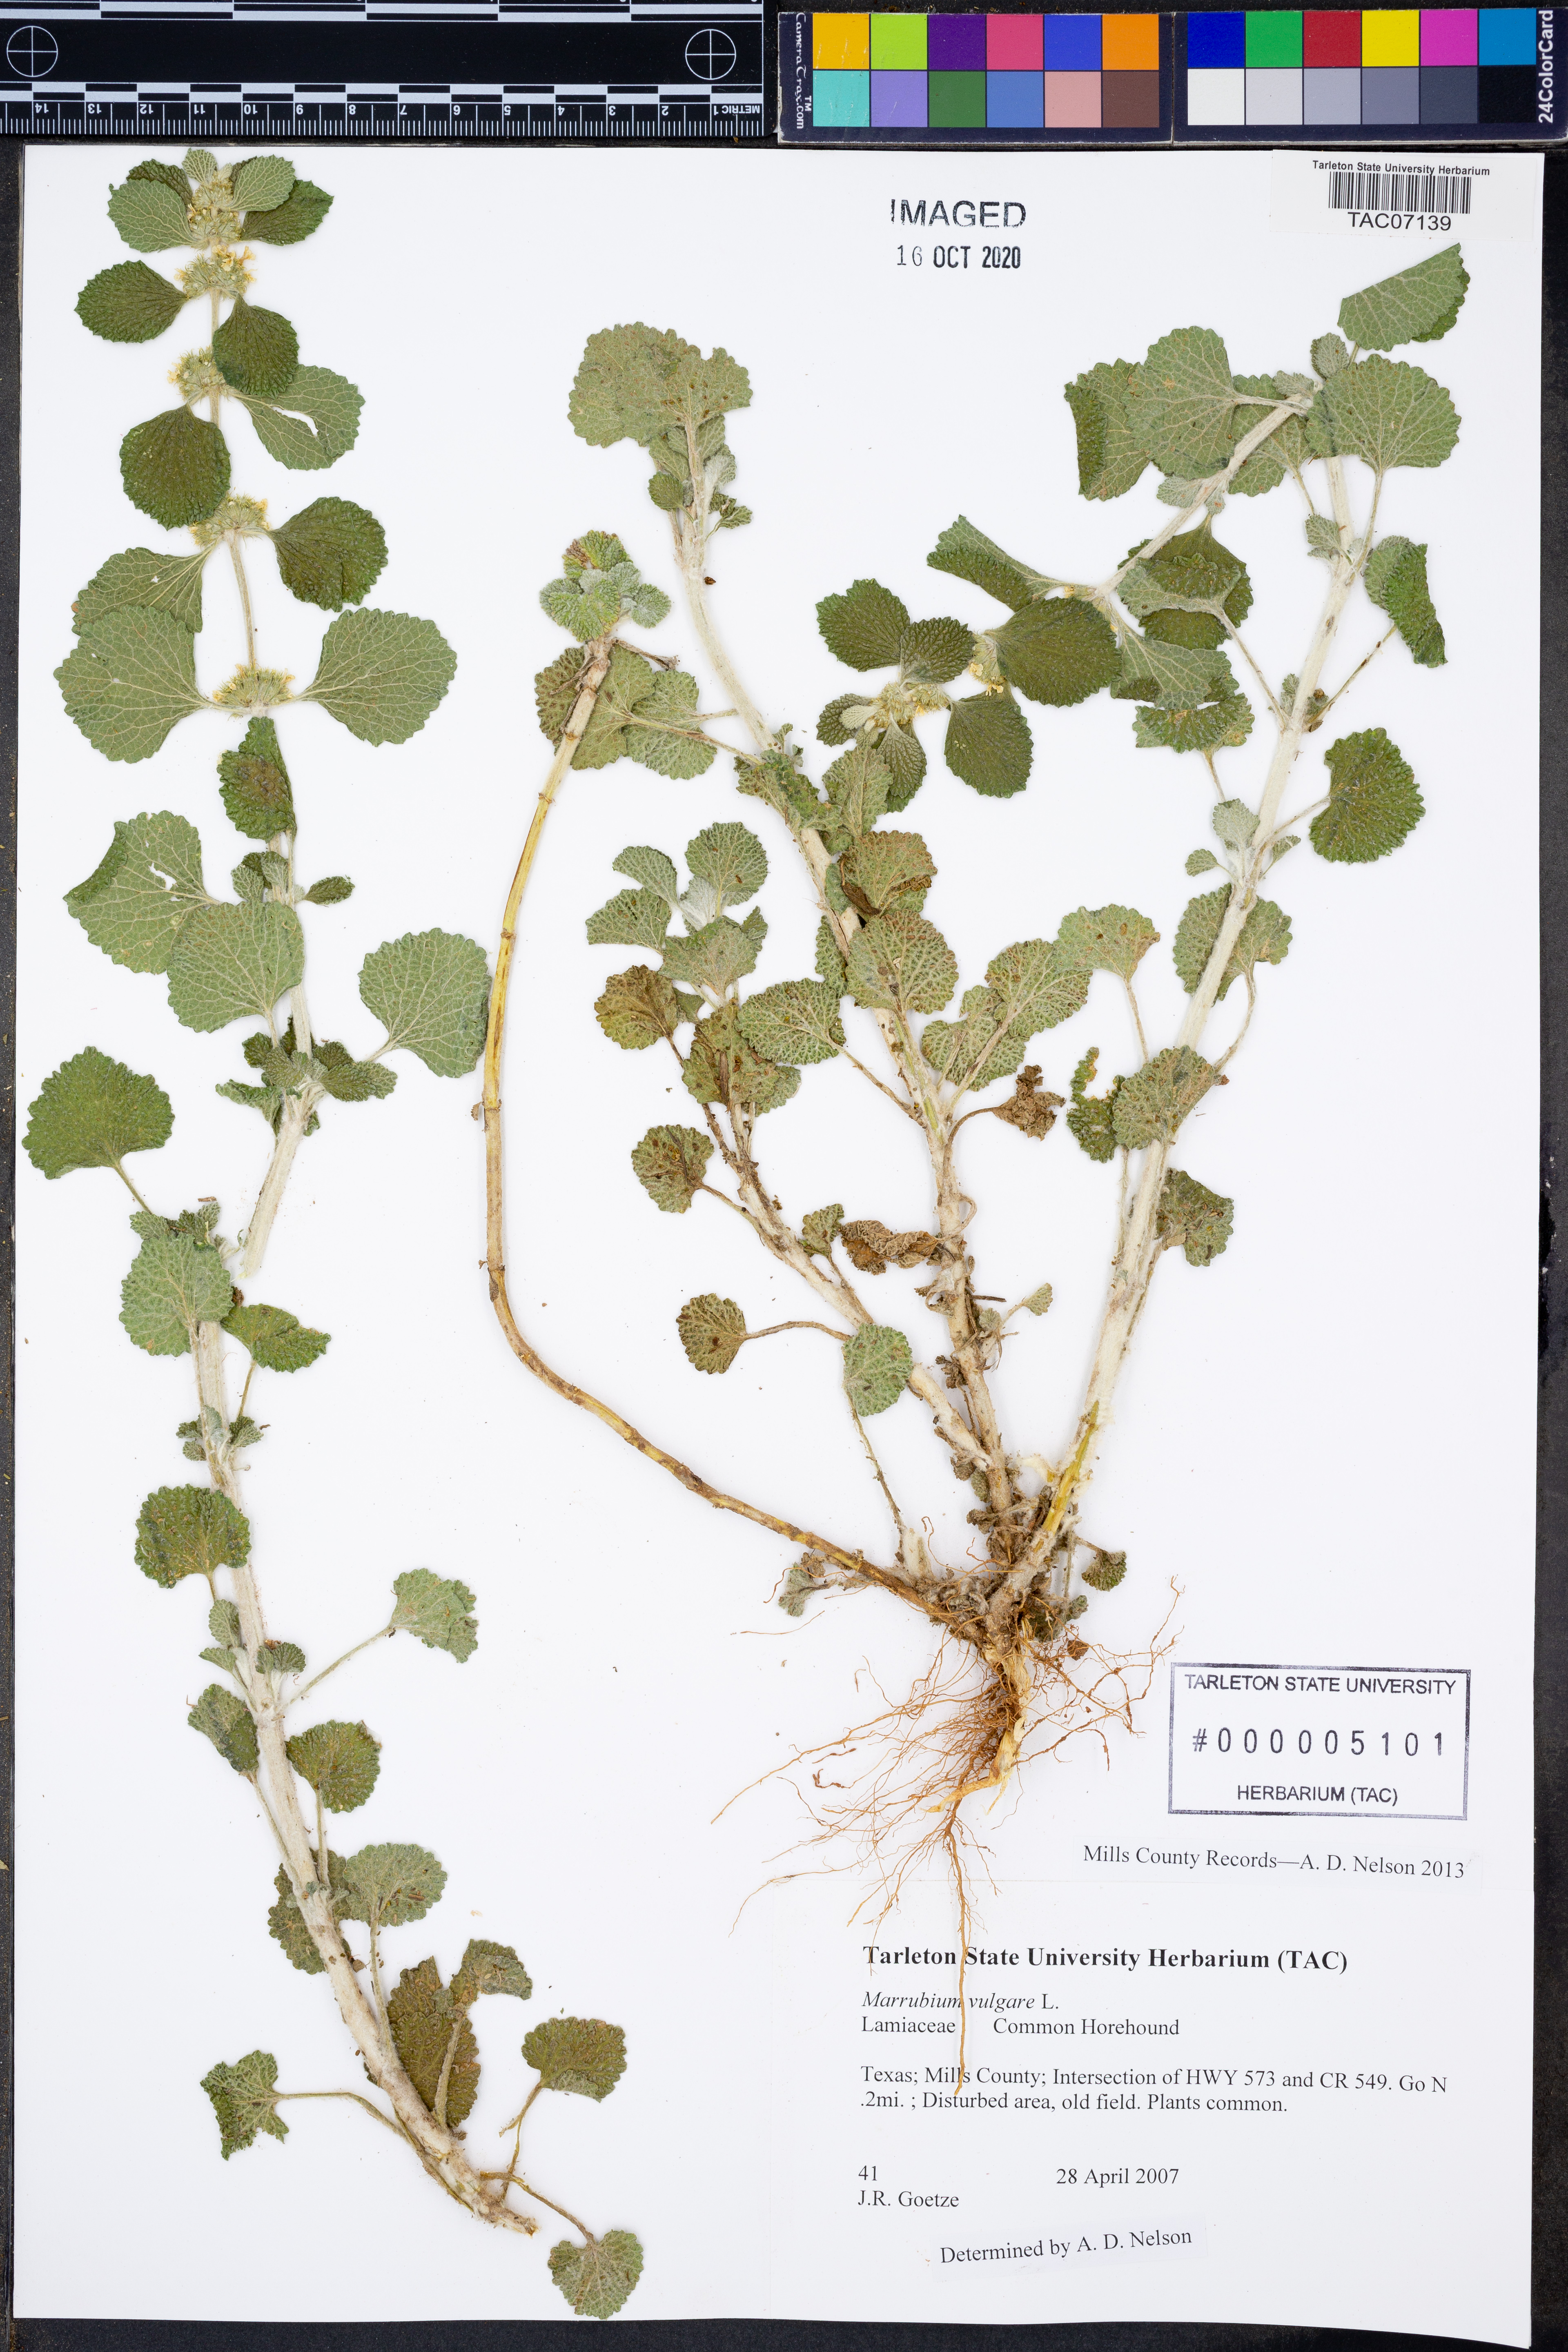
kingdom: Plantae
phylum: Tracheophyta
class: Magnoliopsida
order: Lamiales
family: Lamiaceae
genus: Marrubium
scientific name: Marrubium vulgare
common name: Horehound
